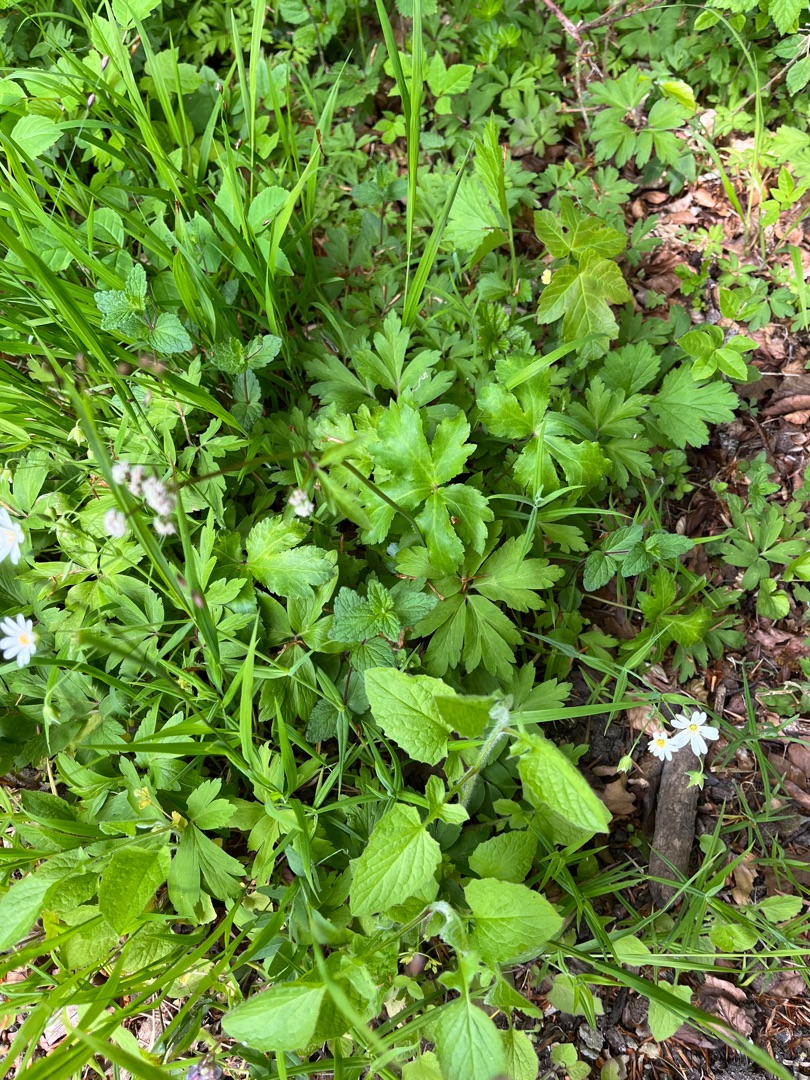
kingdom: Plantae
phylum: Tracheophyta
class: Magnoliopsida
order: Apiales
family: Apiaceae
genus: Sanicula
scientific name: Sanicula europaea
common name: Sanikel
